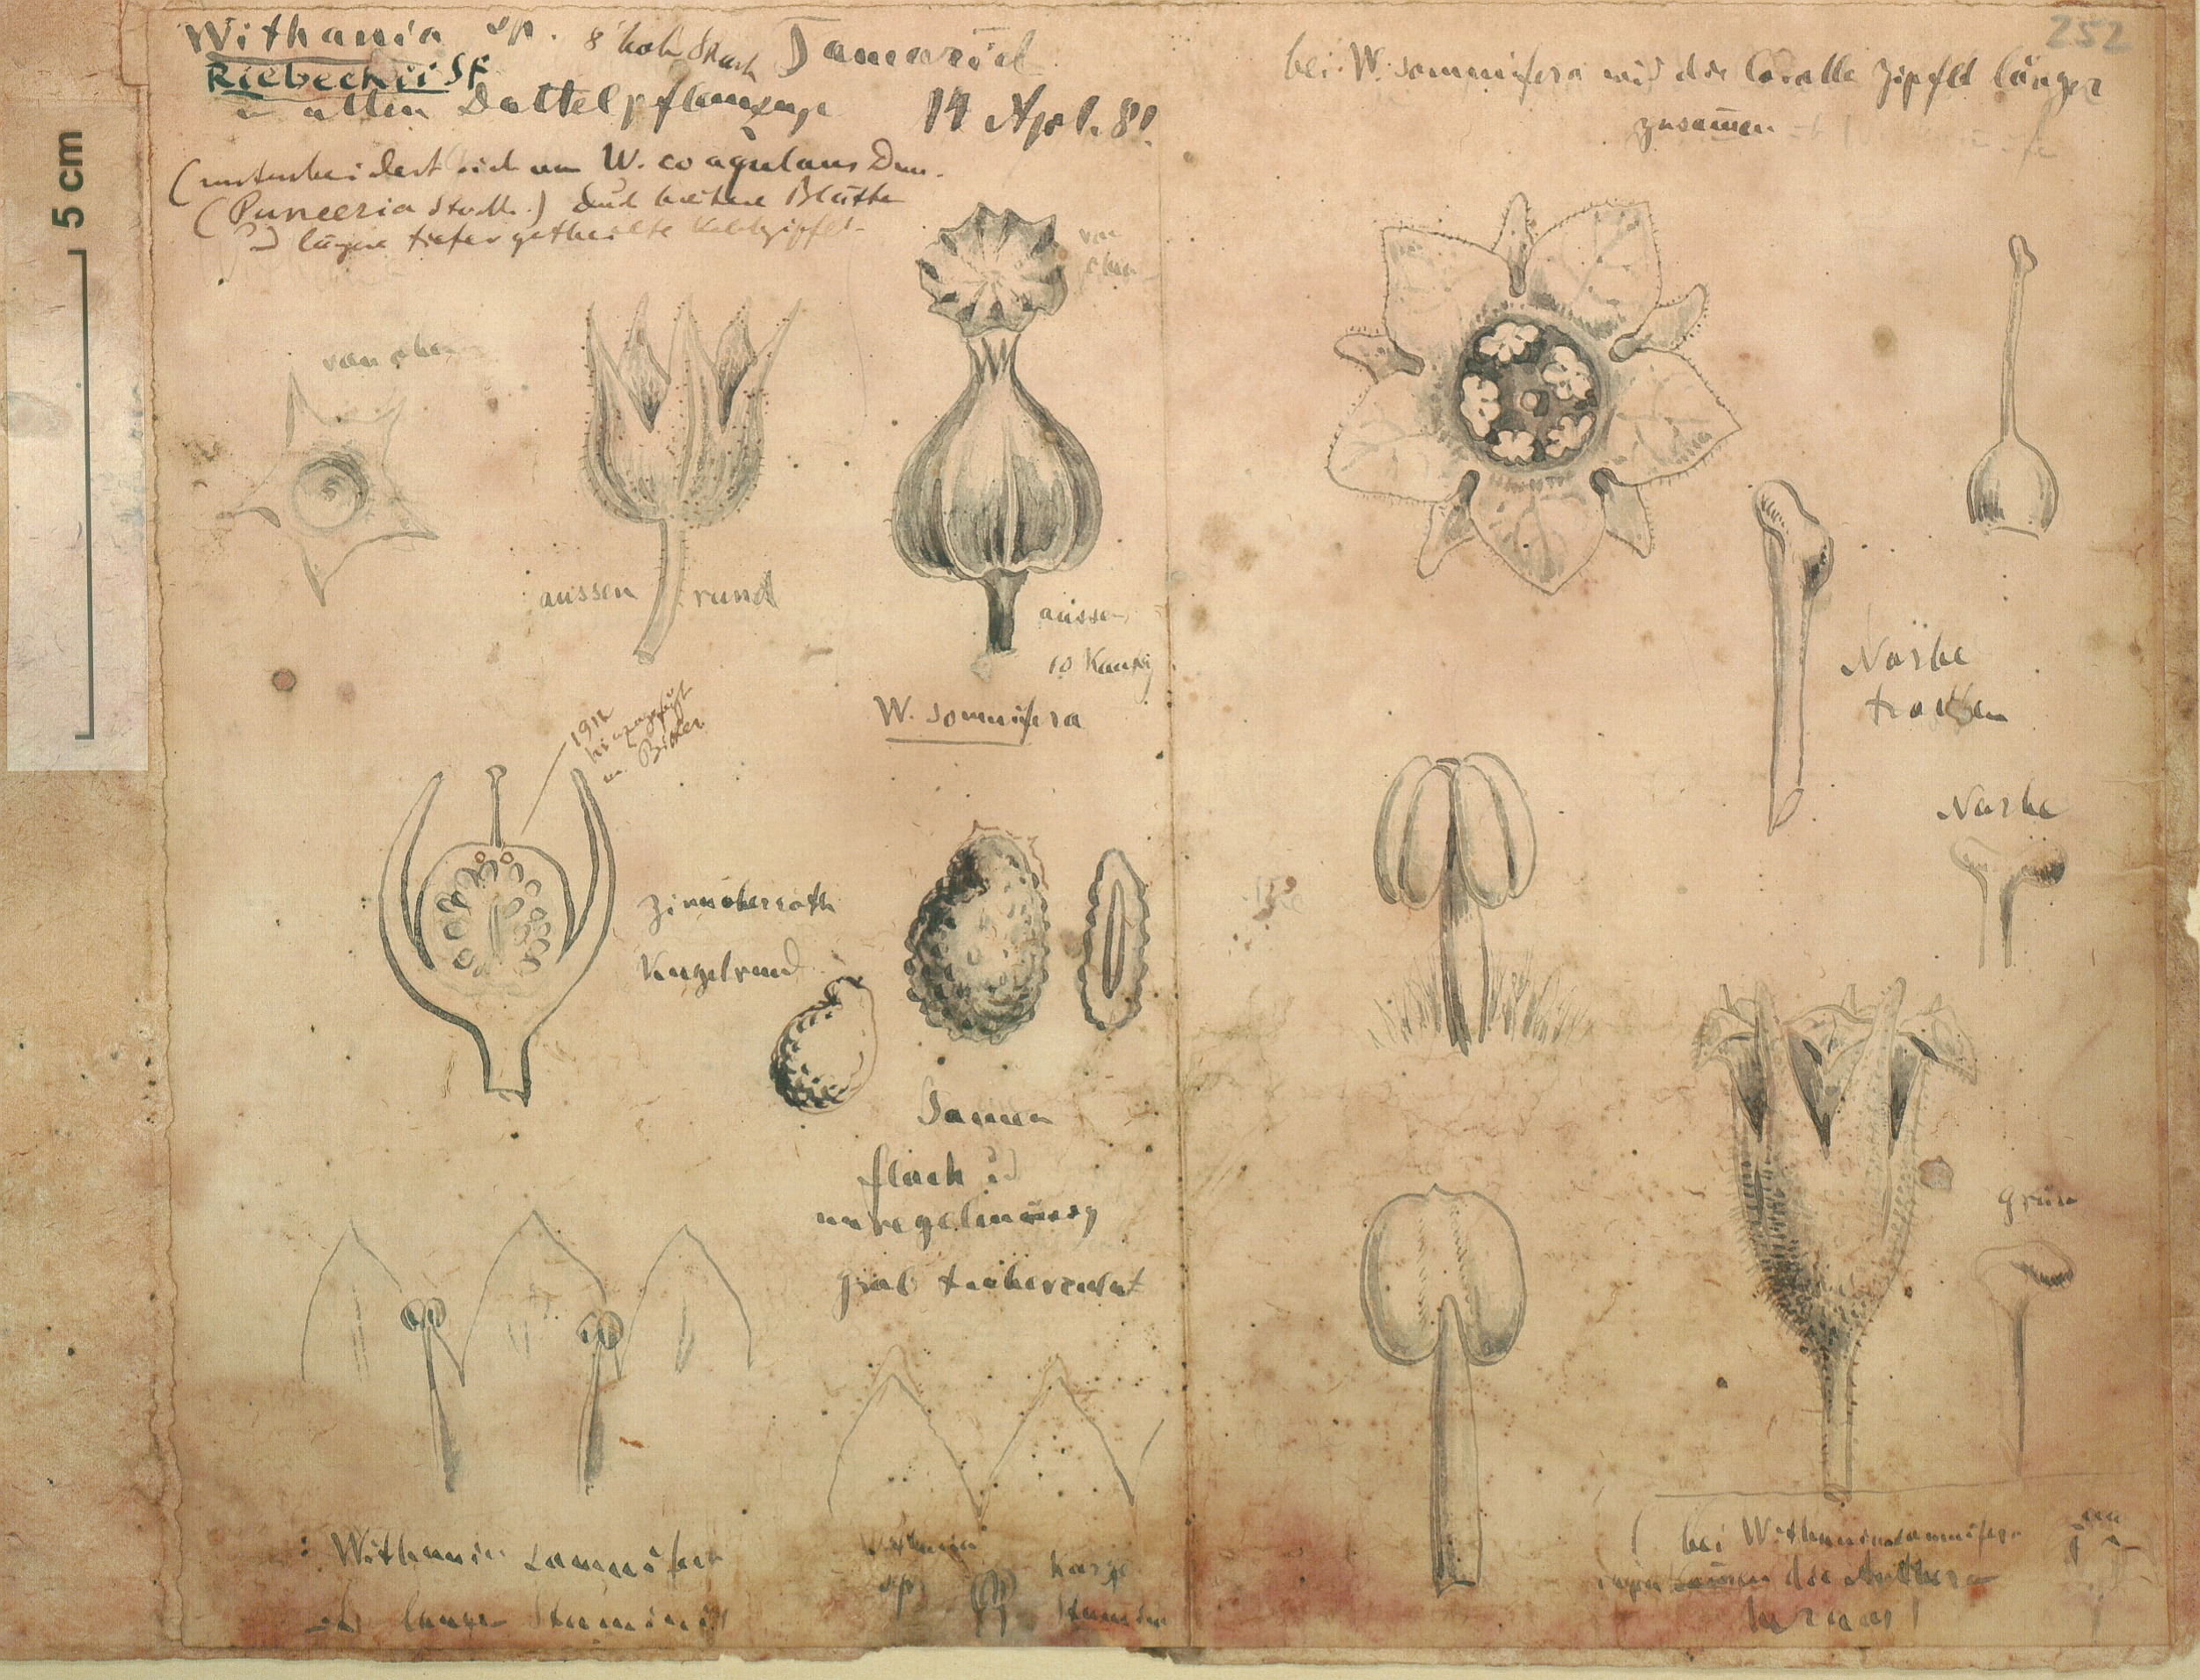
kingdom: Plantae
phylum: Tracheophyta
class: Magnoliopsida
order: Solanales
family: Solanaceae
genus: Withania
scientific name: Withania riebeckii
